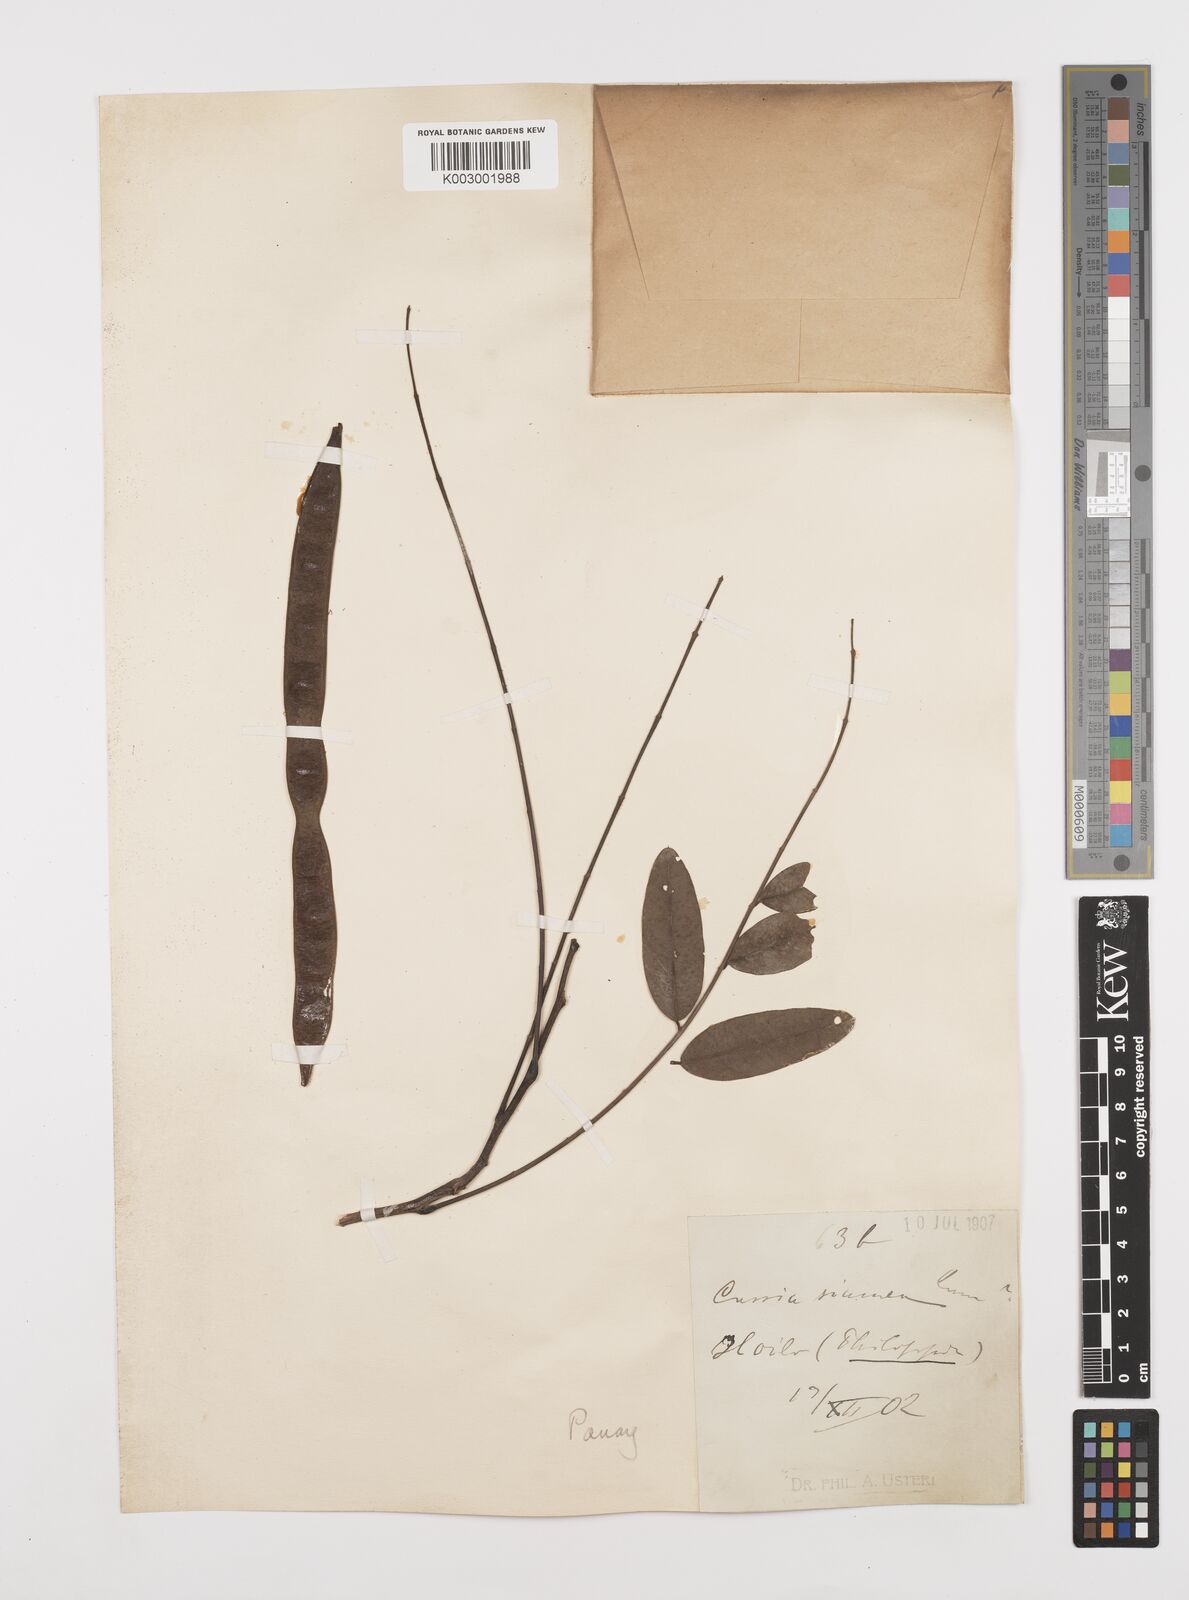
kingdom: Plantae
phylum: Tracheophyta
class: Magnoliopsida
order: Fabales
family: Fabaceae
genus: Senna
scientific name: Senna siamea
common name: Siamese cassia
